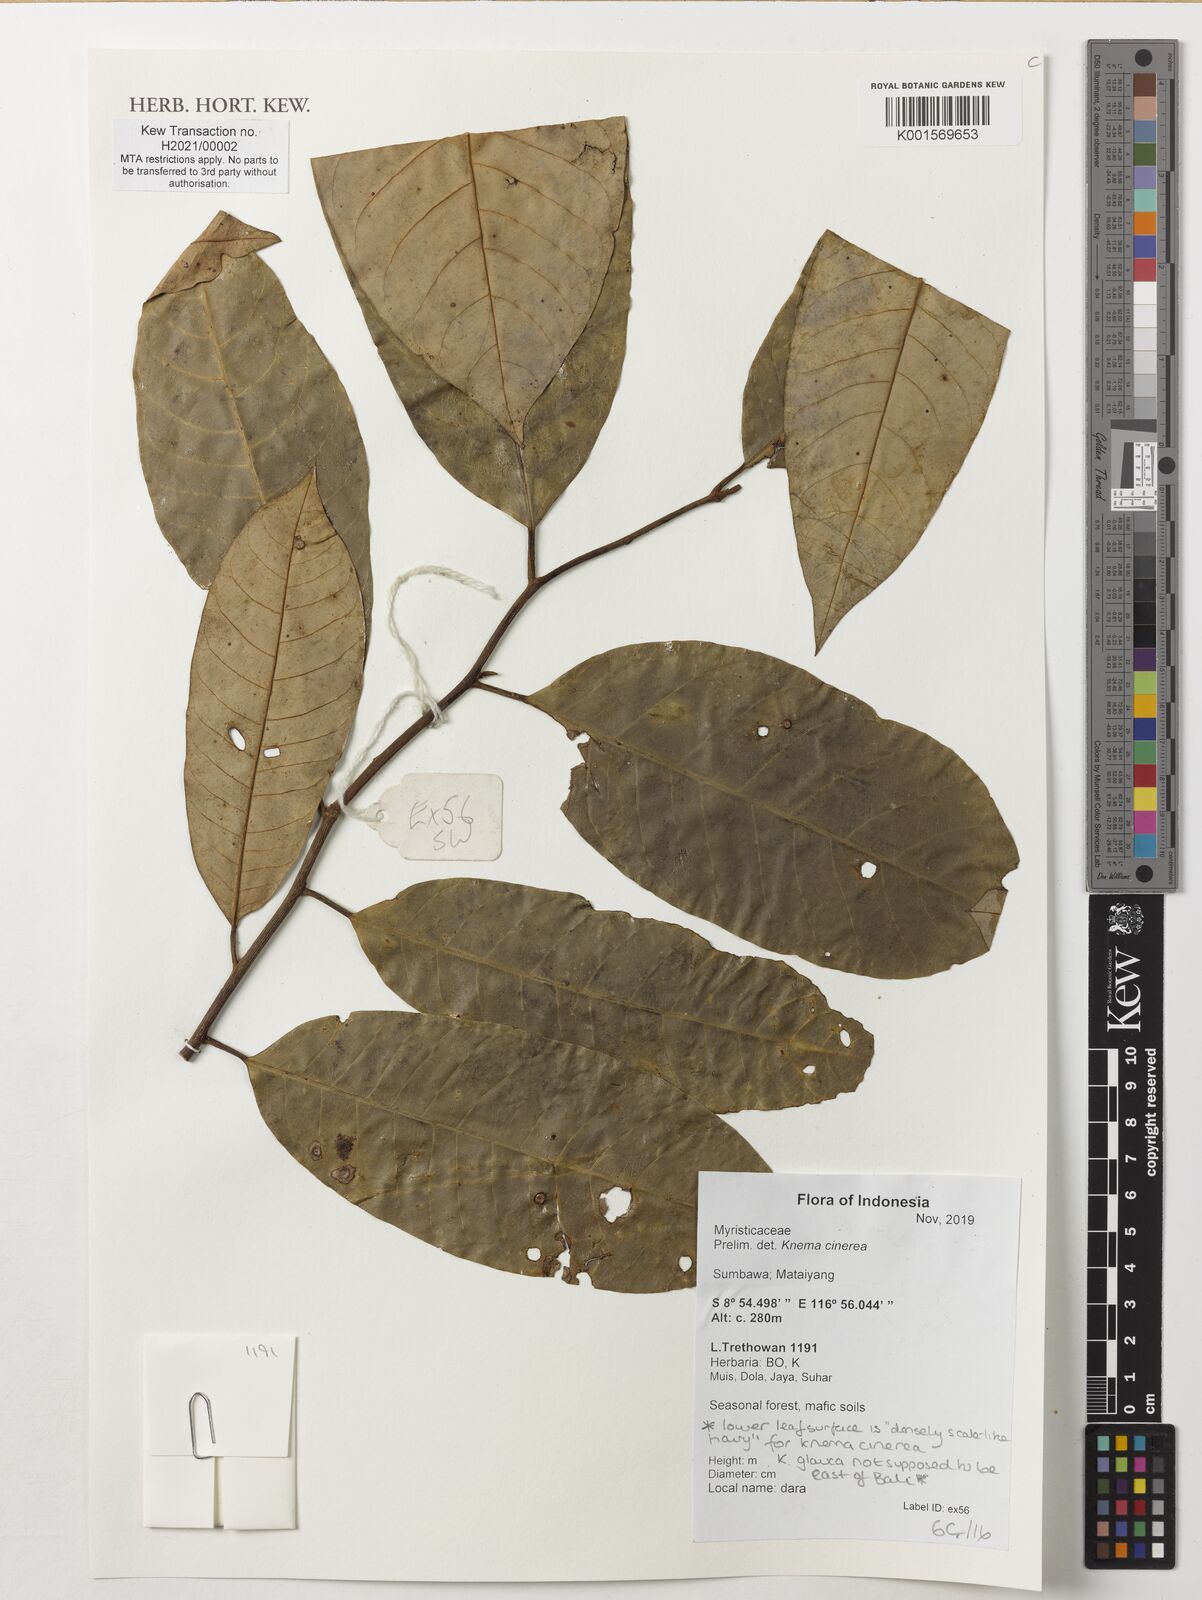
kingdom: Plantae
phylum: Tracheophyta
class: Magnoliopsida
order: Magnoliales
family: Myristicaceae
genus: Knema
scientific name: Knema cinerea
